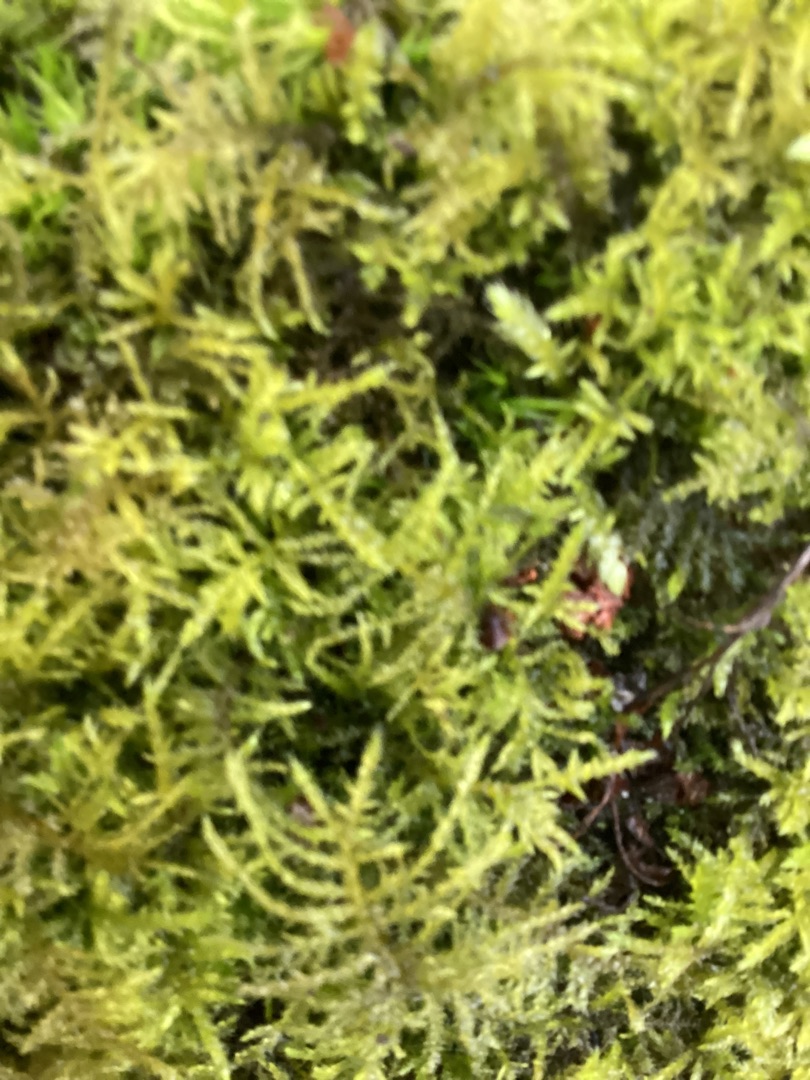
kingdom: Plantae
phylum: Bryophyta
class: Bryopsida
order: Hypnales
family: Brachytheciaceae
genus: Kindbergia
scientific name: Kindbergia praelonga
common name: Forskelligbladet vortetand
